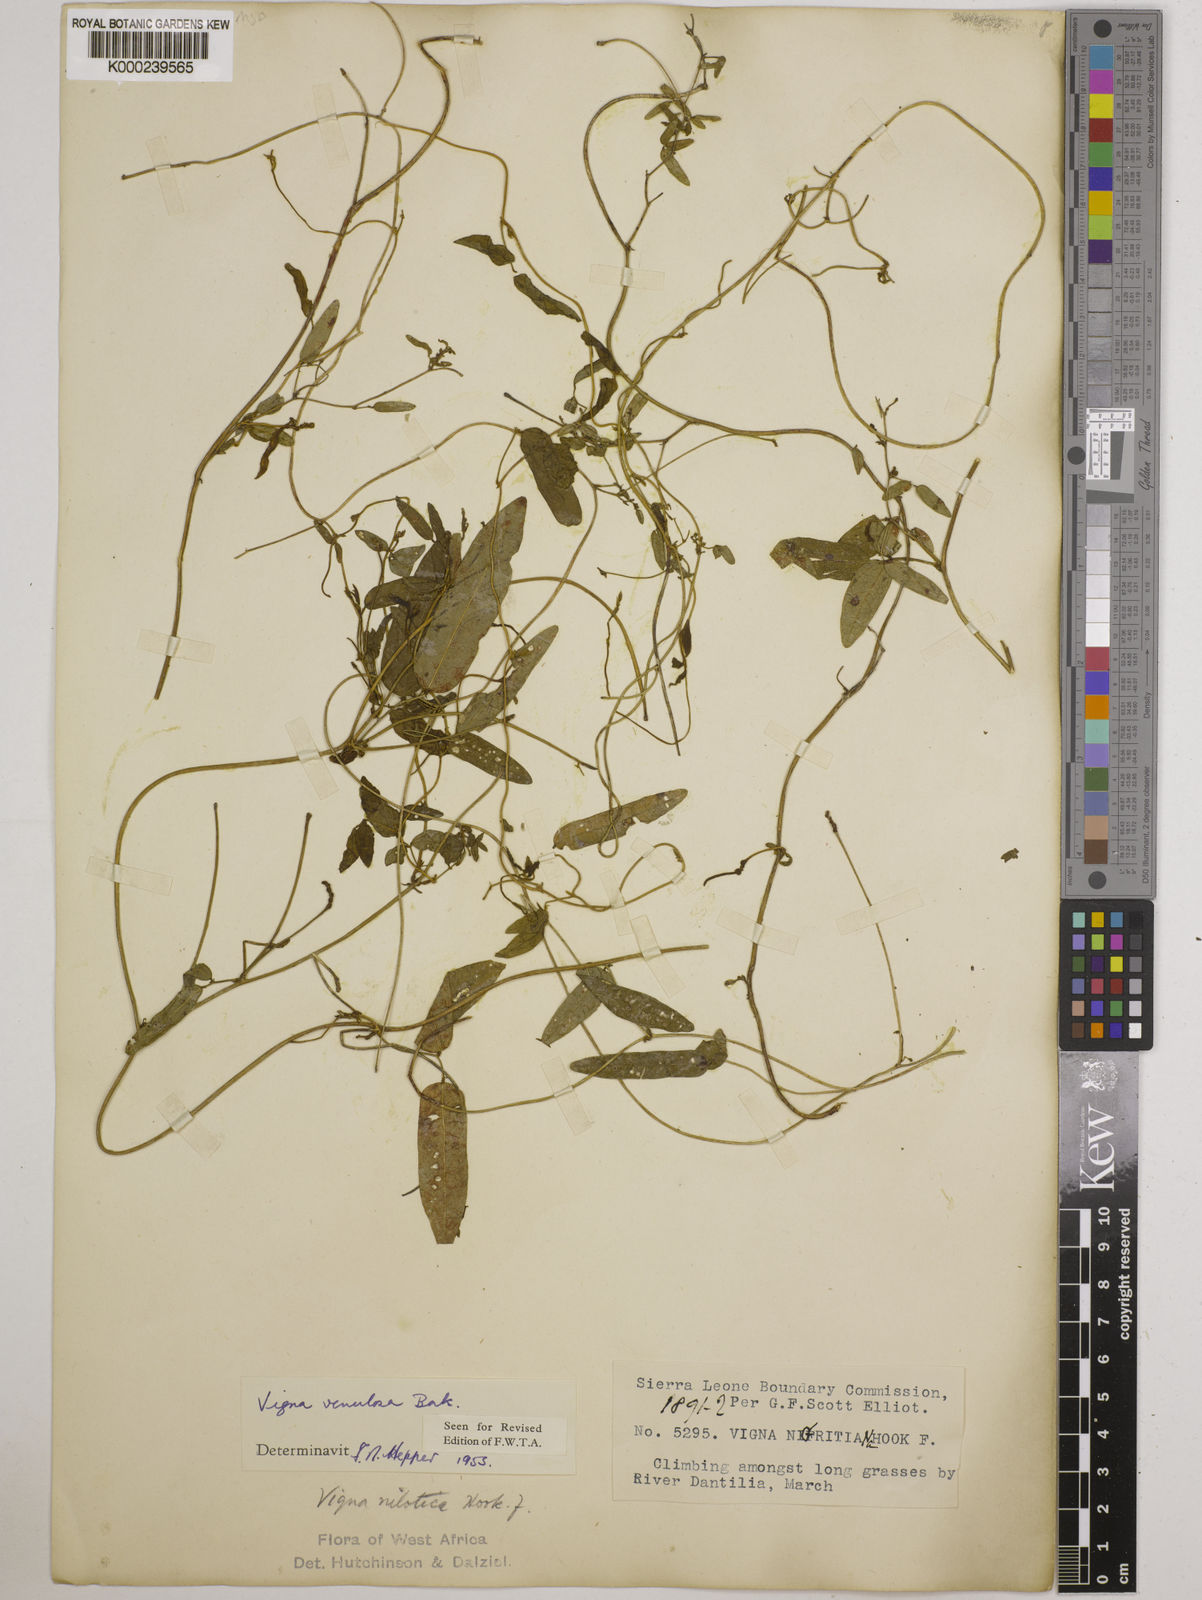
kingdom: Plantae
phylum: Tracheophyta
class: Magnoliopsida
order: Fabales
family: Fabaceae
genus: Vigna
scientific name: Vigna venulosa
